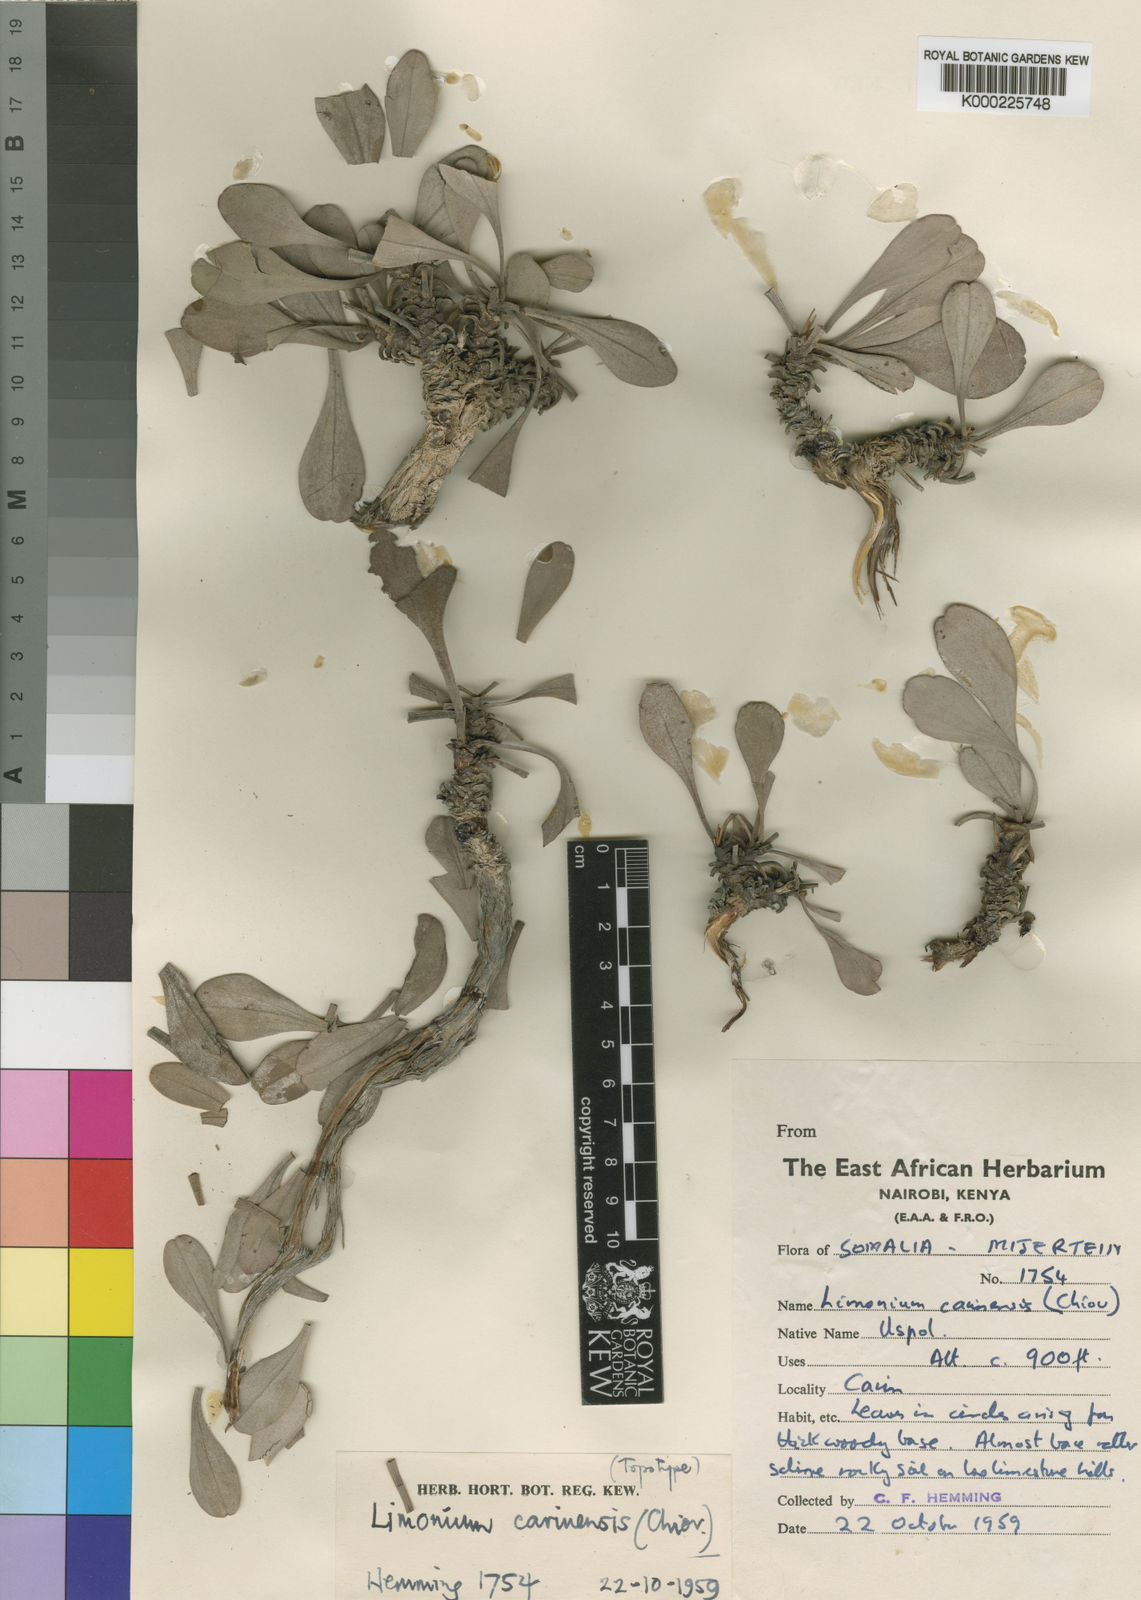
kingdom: Plantae
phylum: Tracheophyta
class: Magnoliopsida
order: Caryophyllales
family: Plumbaginaceae
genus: Limonium
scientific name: Limonium
